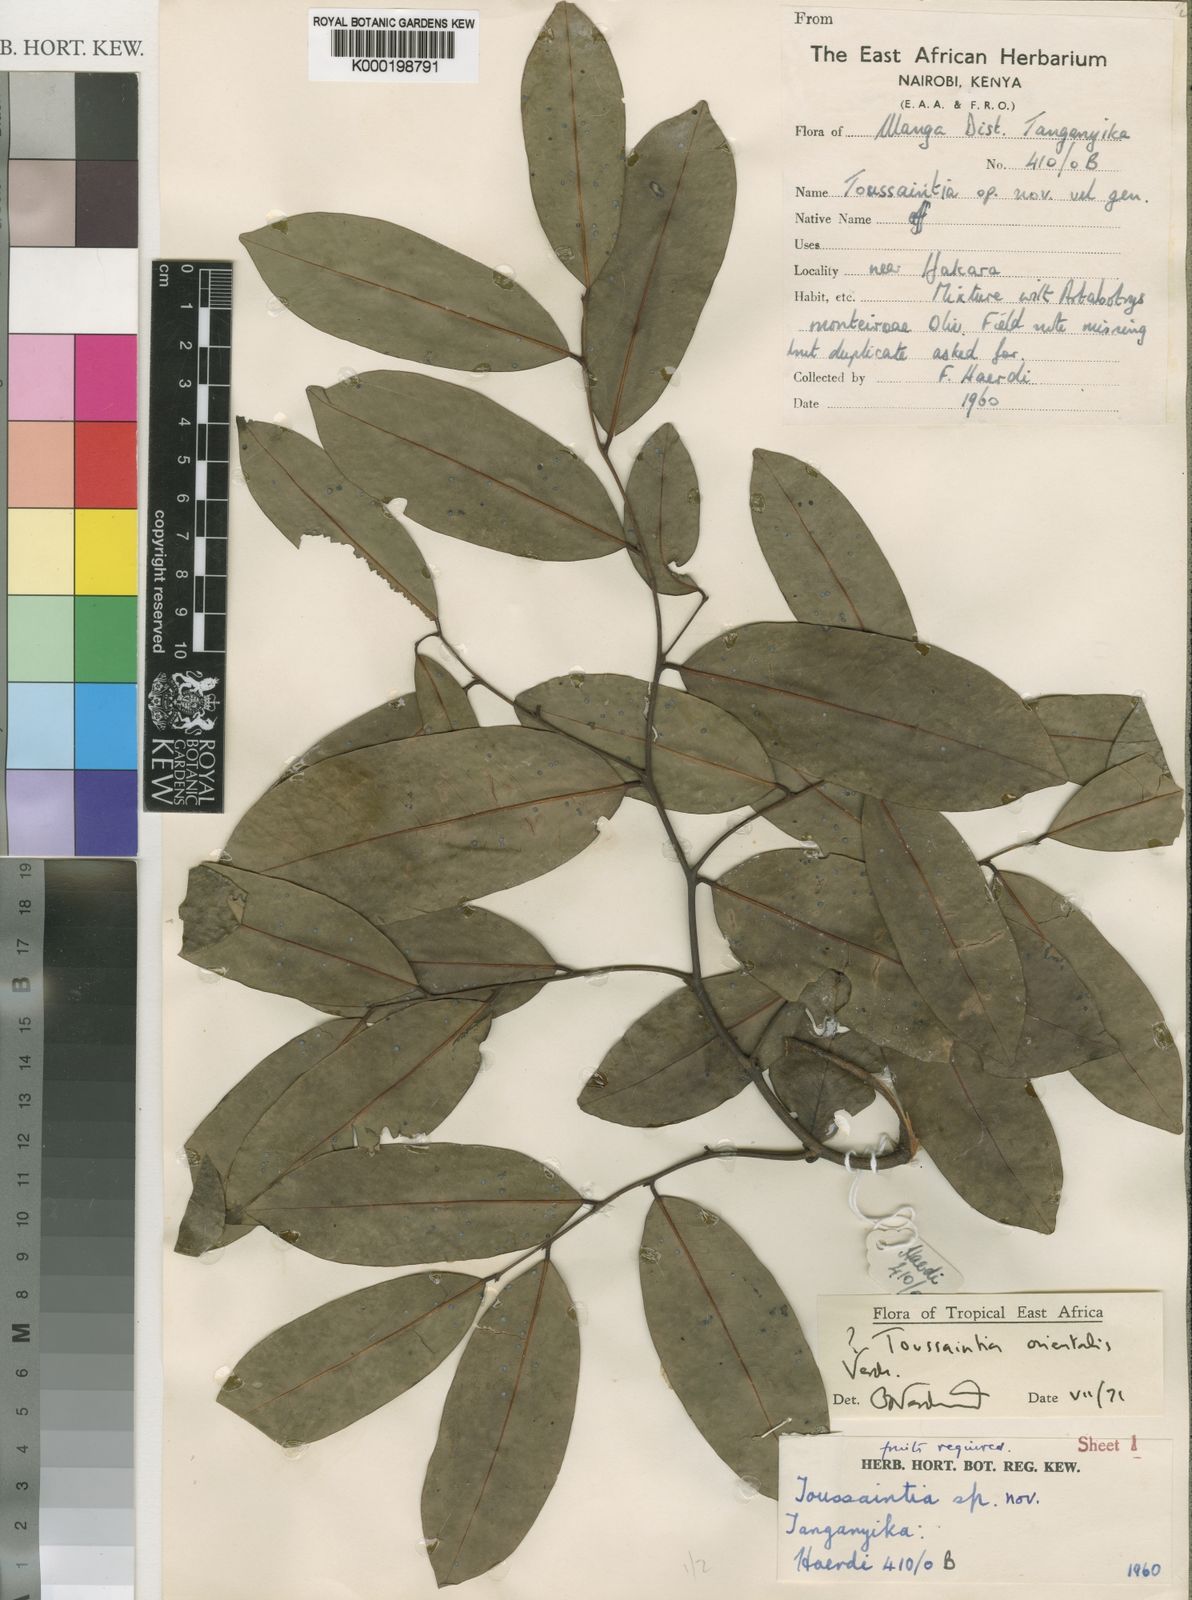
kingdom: Plantae
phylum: Tracheophyta
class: Magnoliopsida
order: Magnoliales
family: Annonaceae
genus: Toussaintia
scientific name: Toussaintia orientalis
